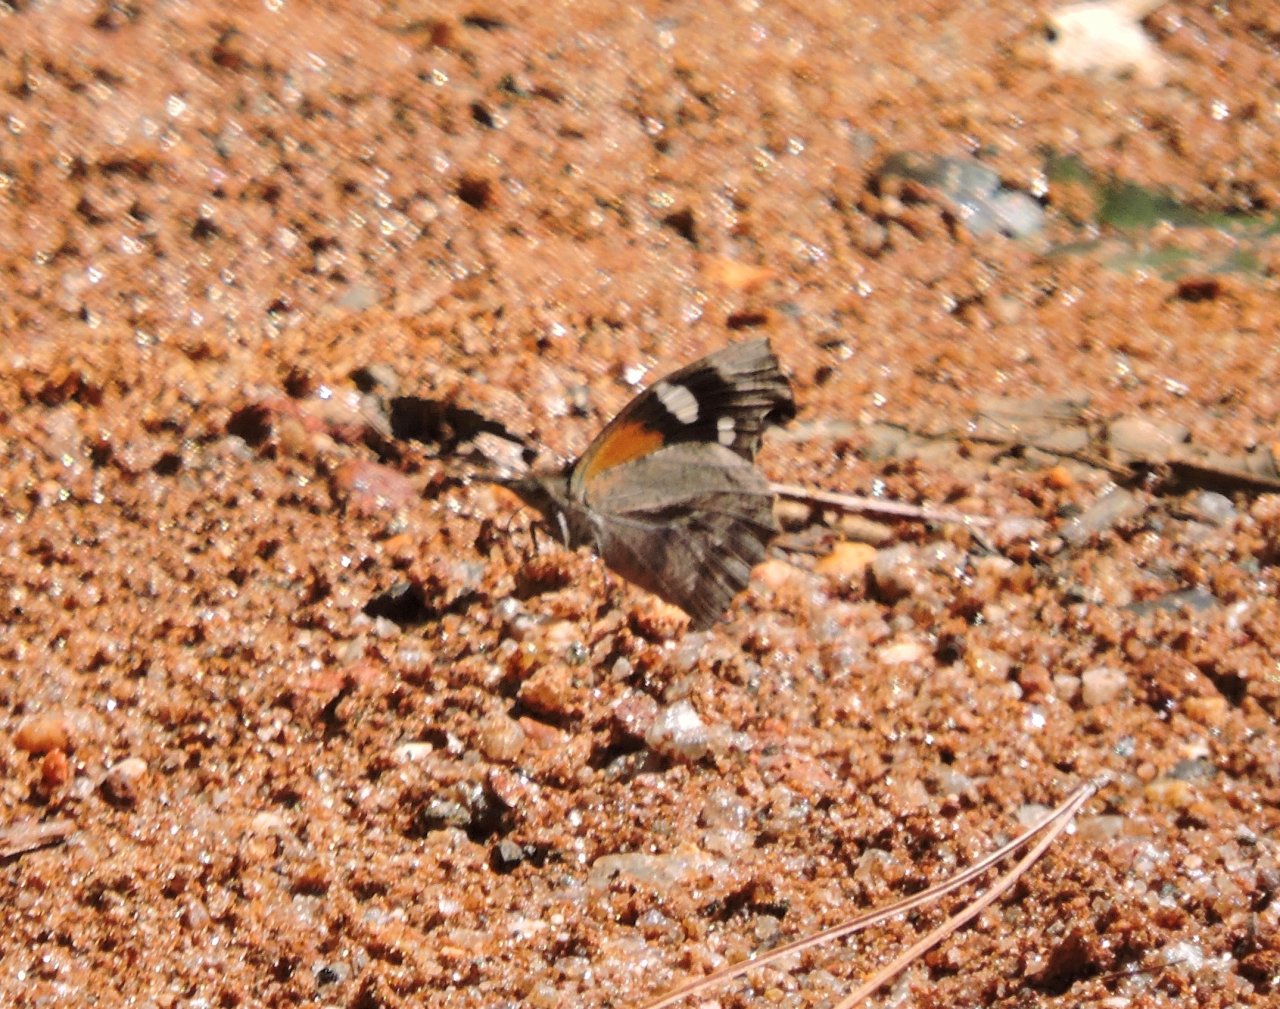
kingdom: Animalia
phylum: Arthropoda
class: Insecta
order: Lepidoptera
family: Nymphalidae
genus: Libytheana
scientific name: Libytheana carinenta
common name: American Snout
